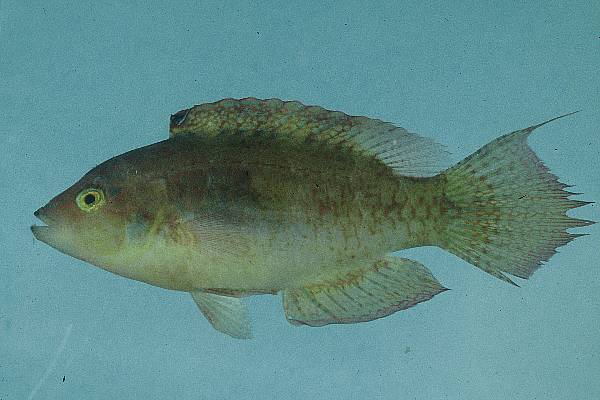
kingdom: Animalia
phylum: Chordata
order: Perciformes
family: Labridae
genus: Oxycheilinus
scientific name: Oxycheilinus bimaculatus
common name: Comettailed wrasse
